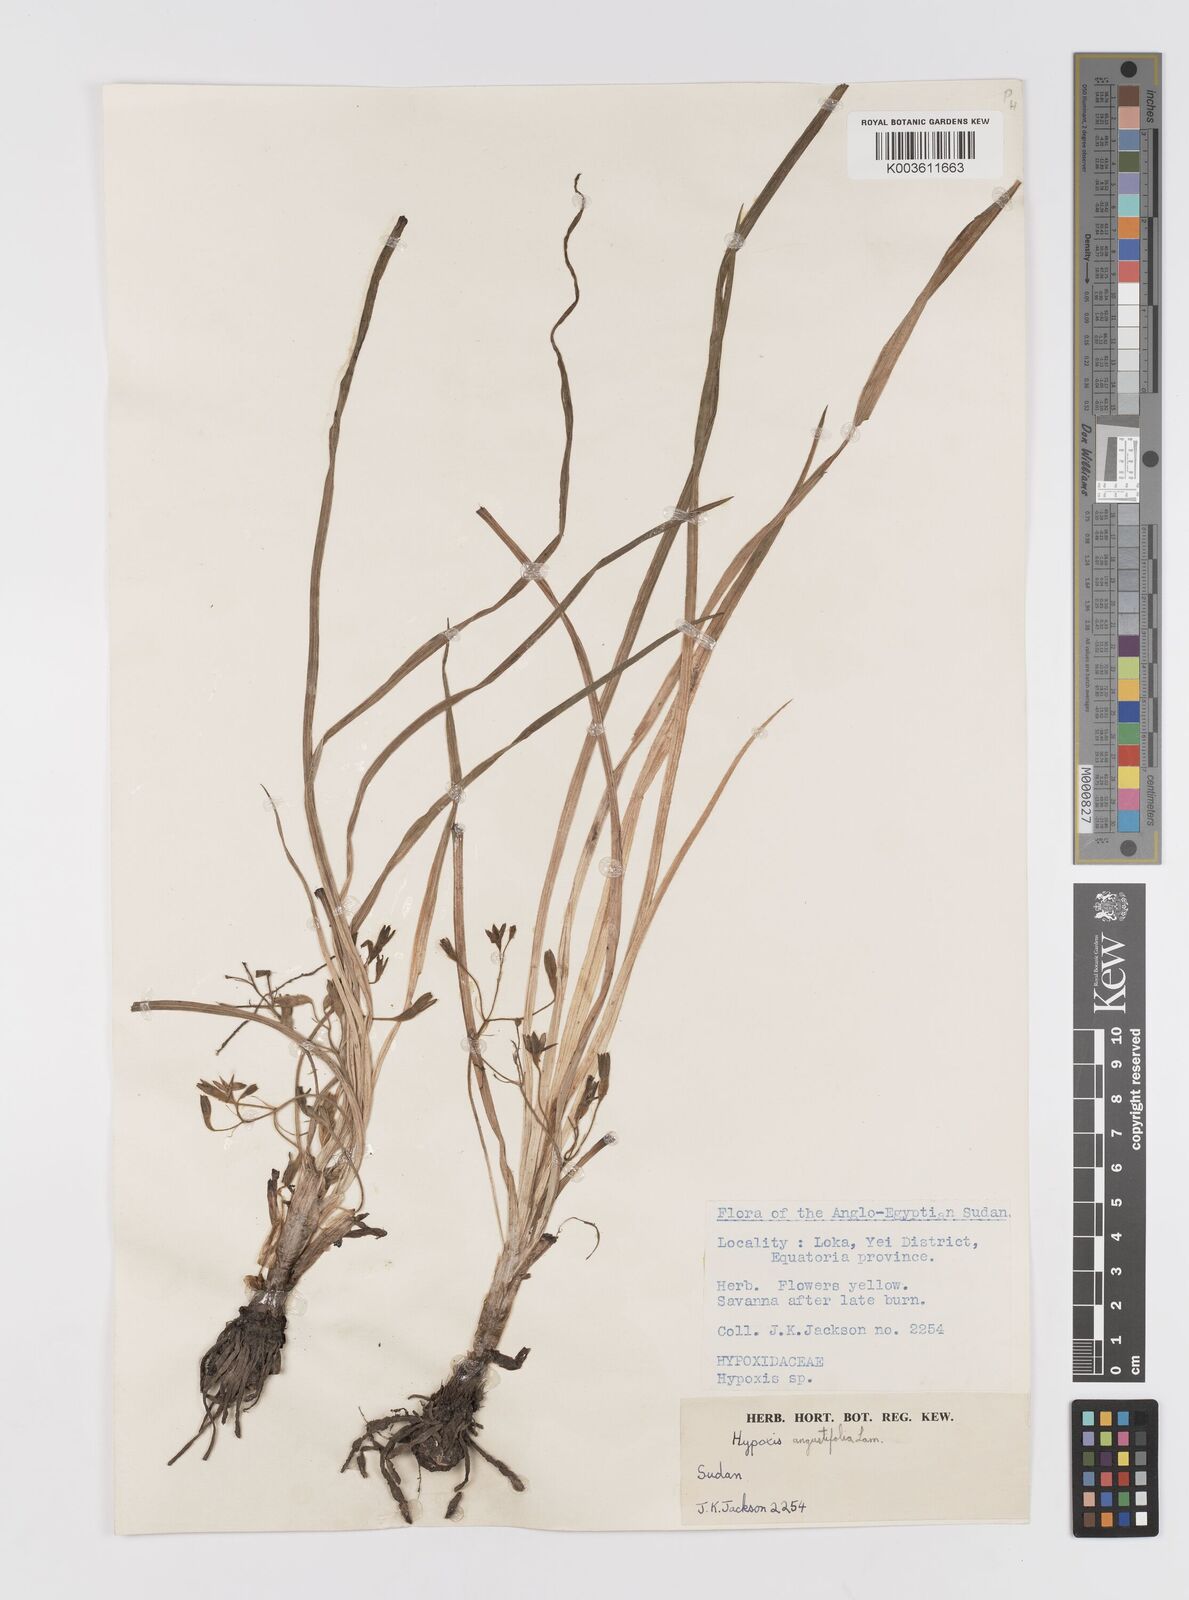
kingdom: Plantae
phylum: Tracheophyta
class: Liliopsida
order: Asparagales
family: Hypoxidaceae
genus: Hypoxis
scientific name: Hypoxis angustifolia
